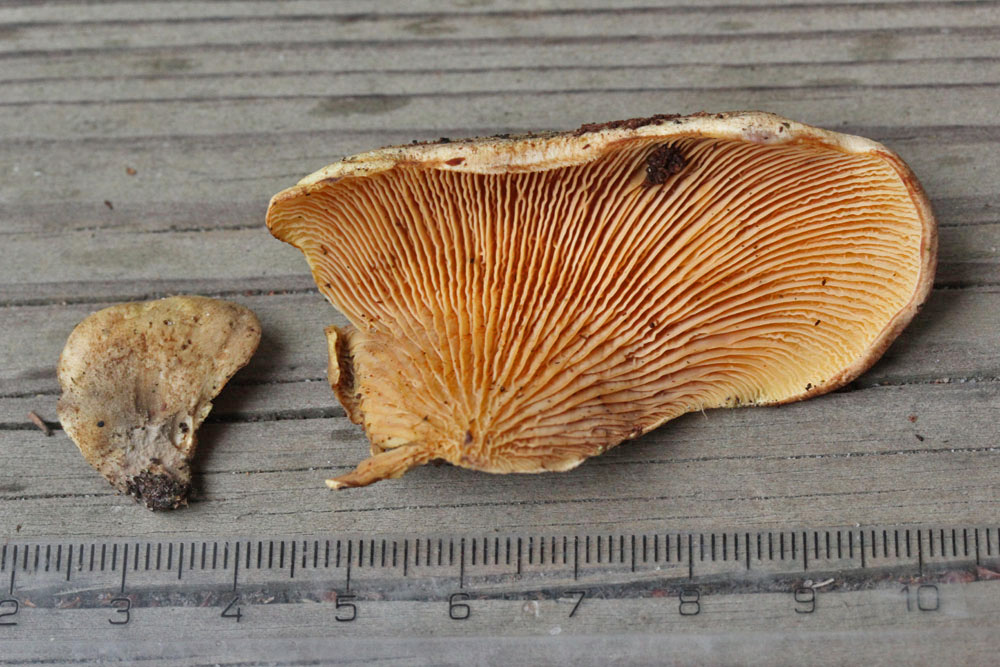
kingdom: Fungi
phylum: Basidiomycota
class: Agaricomycetes
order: Boletales
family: Tapinellaceae
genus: Tapinella
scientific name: Tapinella panuoides
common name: tømmer-viftesvamp
